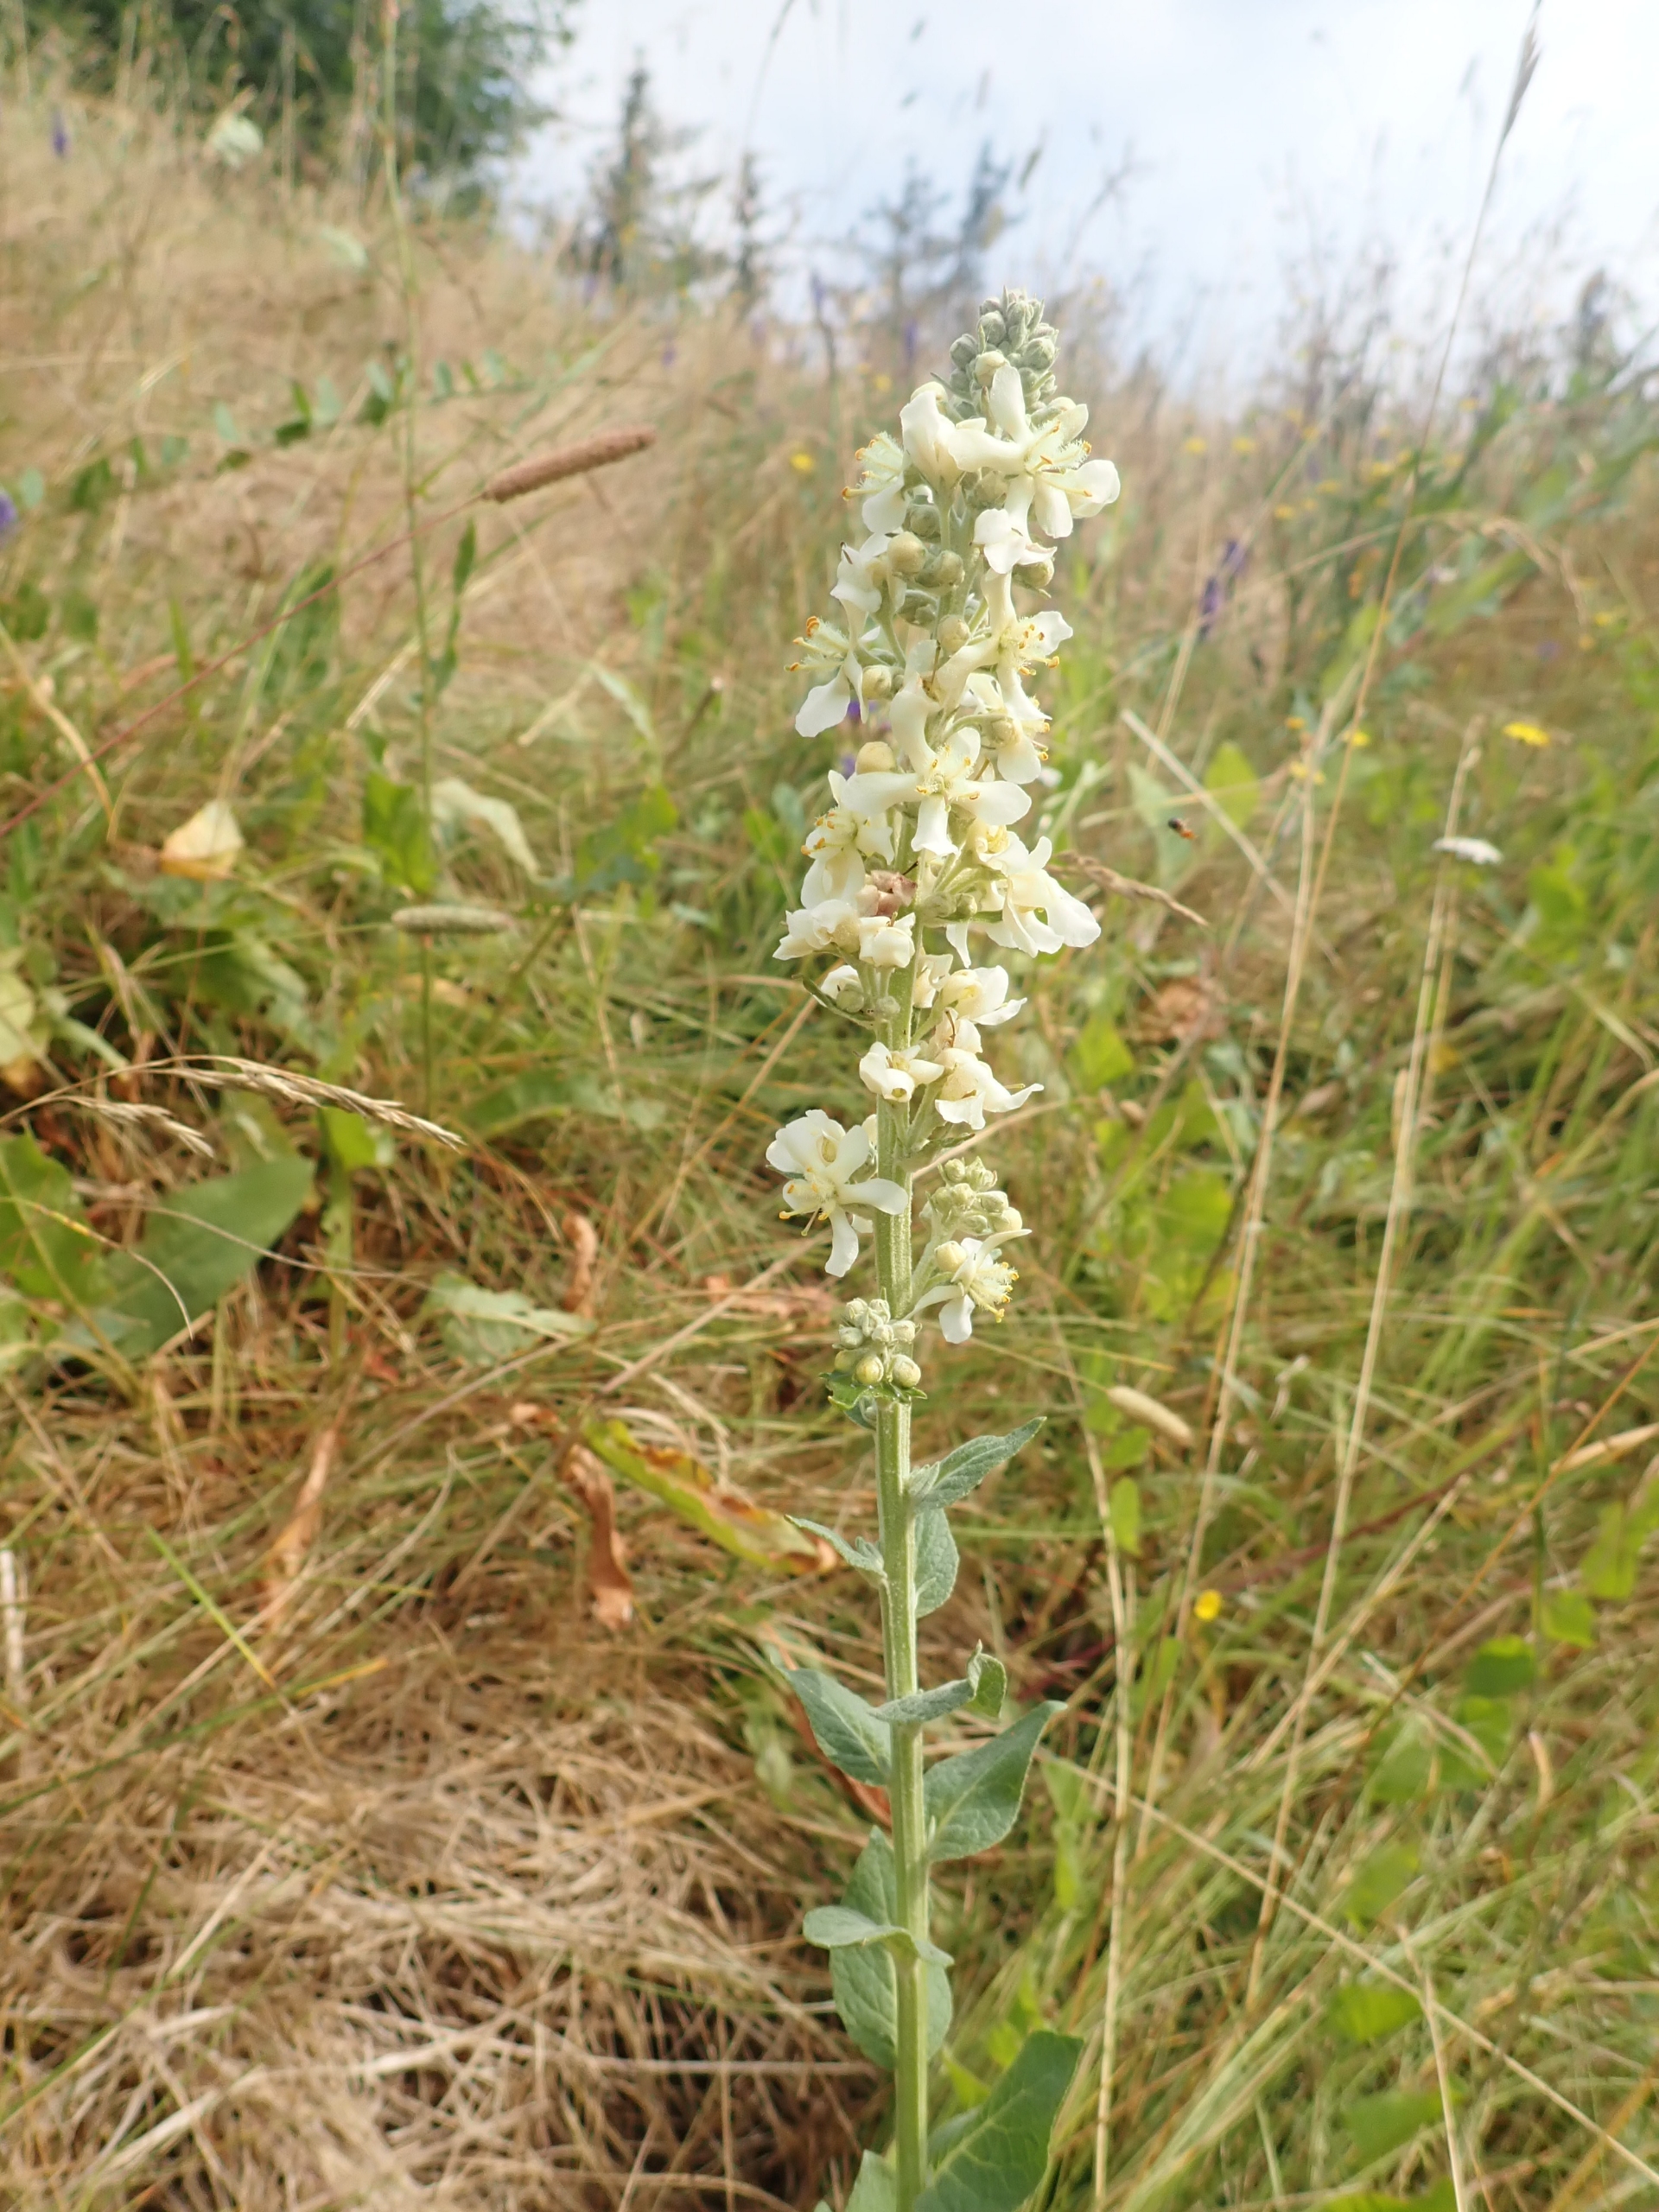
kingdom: Plantae
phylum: Tracheophyta
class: Magnoliopsida
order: Lamiales
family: Scrophulariaceae
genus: Verbascum
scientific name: Verbascum lychnitis
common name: Bleg kongelys
